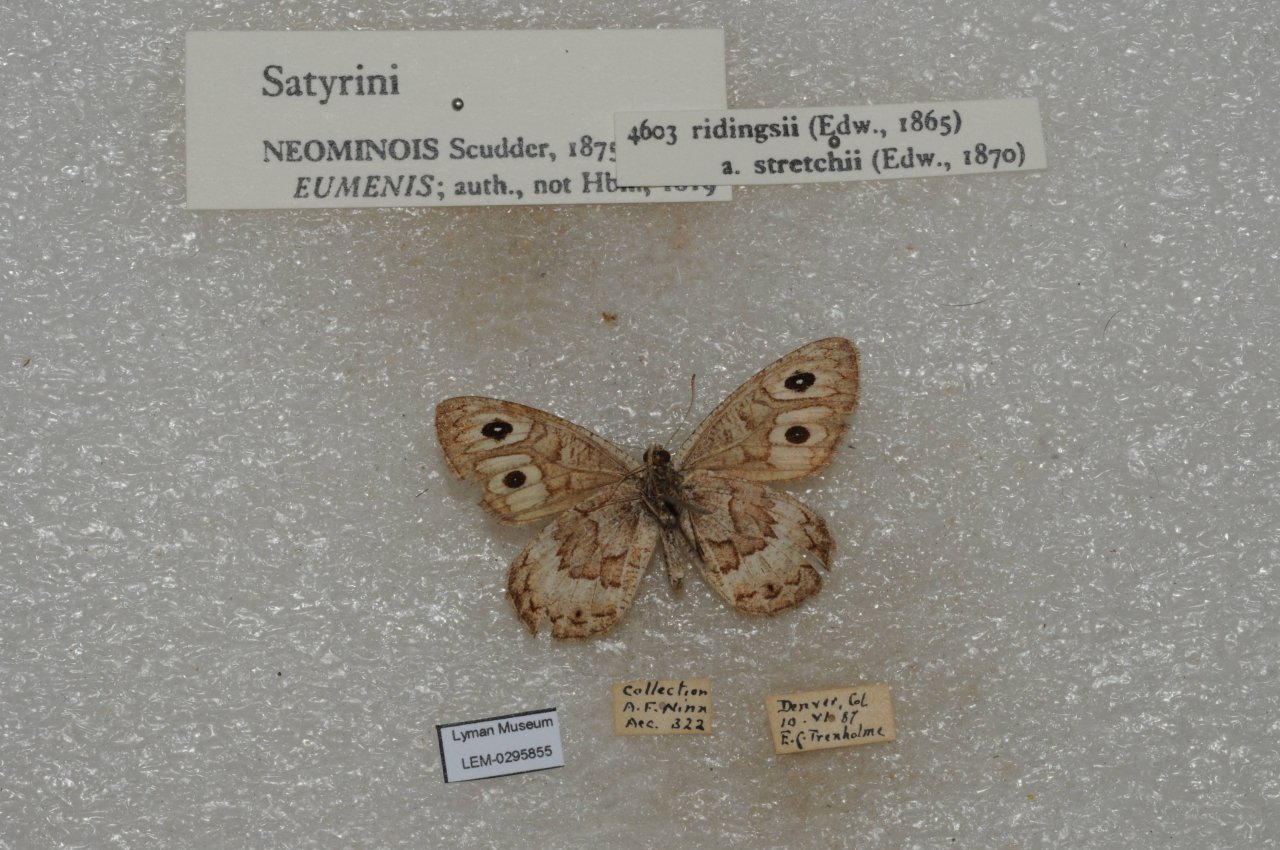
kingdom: Animalia
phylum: Arthropoda
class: Insecta
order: Lepidoptera
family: Nymphalidae
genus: Neominois
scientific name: Neominois ridingsii
